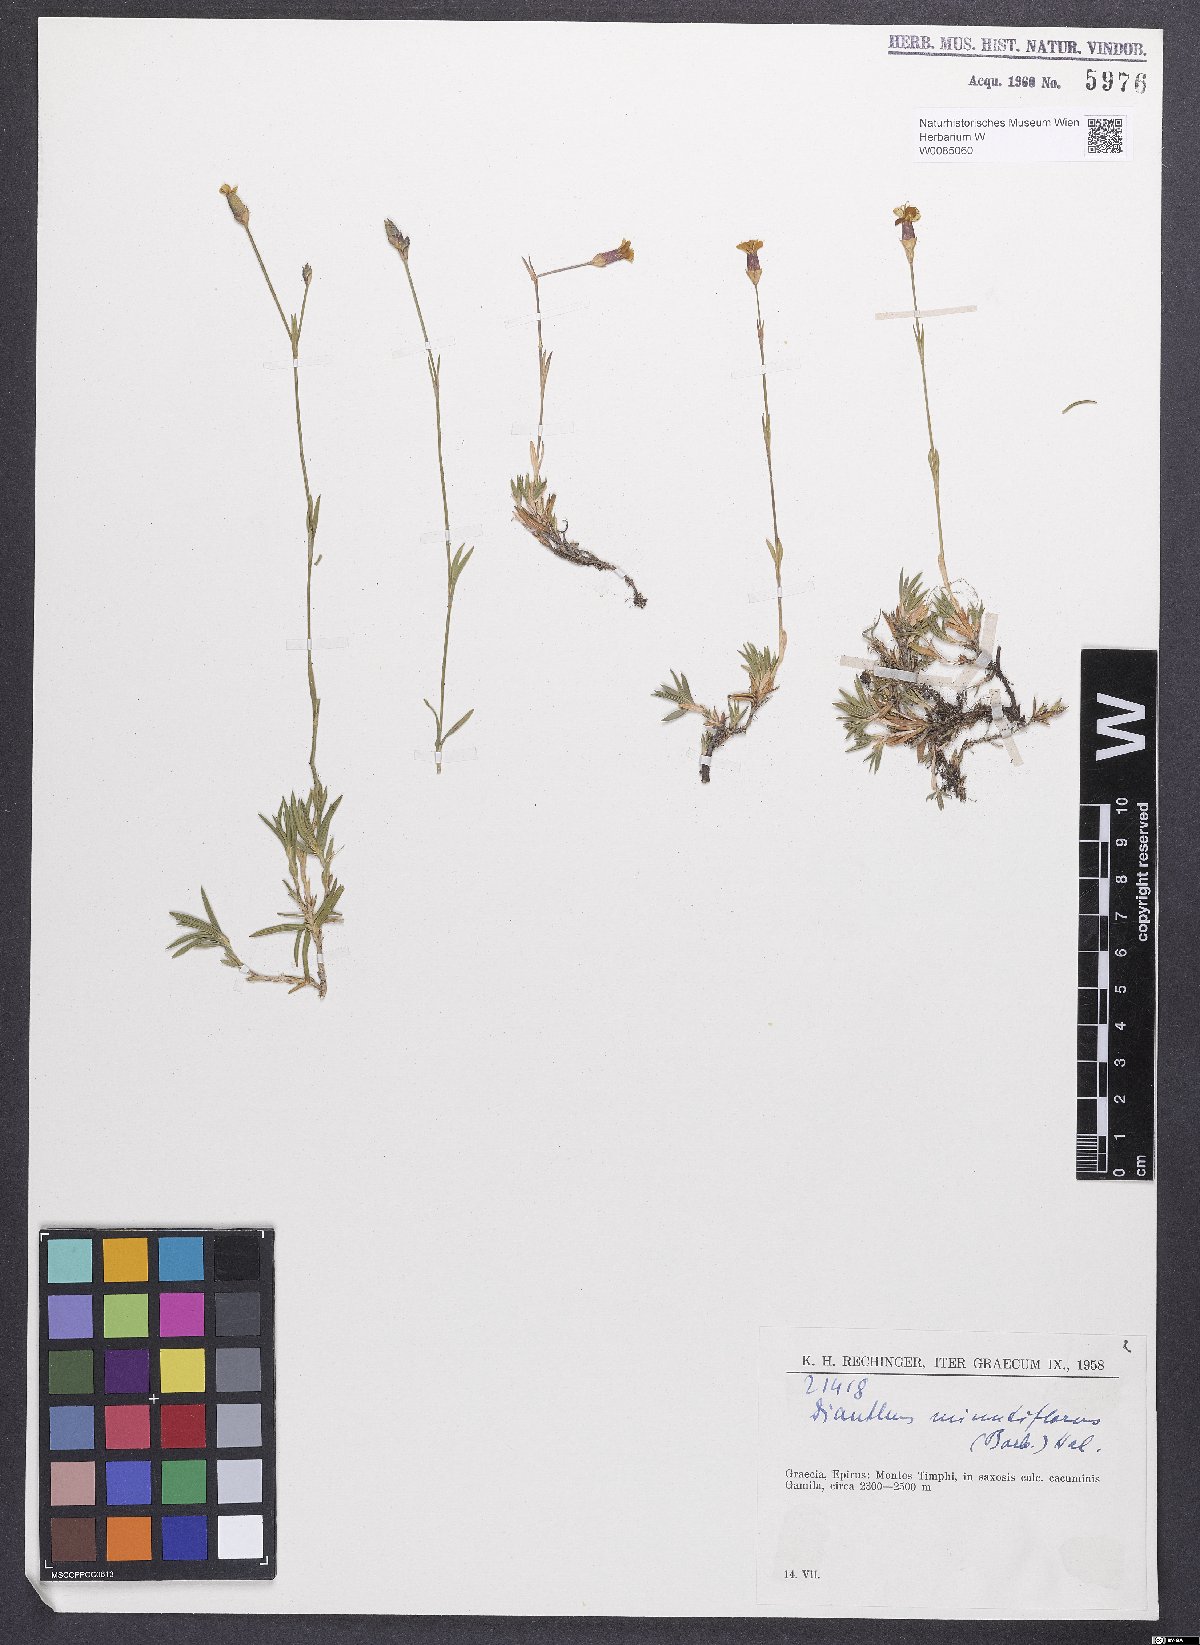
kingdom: Plantae
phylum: Tracheophyta
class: Magnoliopsida
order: Caryophyllales
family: Caryophyllaceae
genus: Dianthus
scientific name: Dianthus integer
